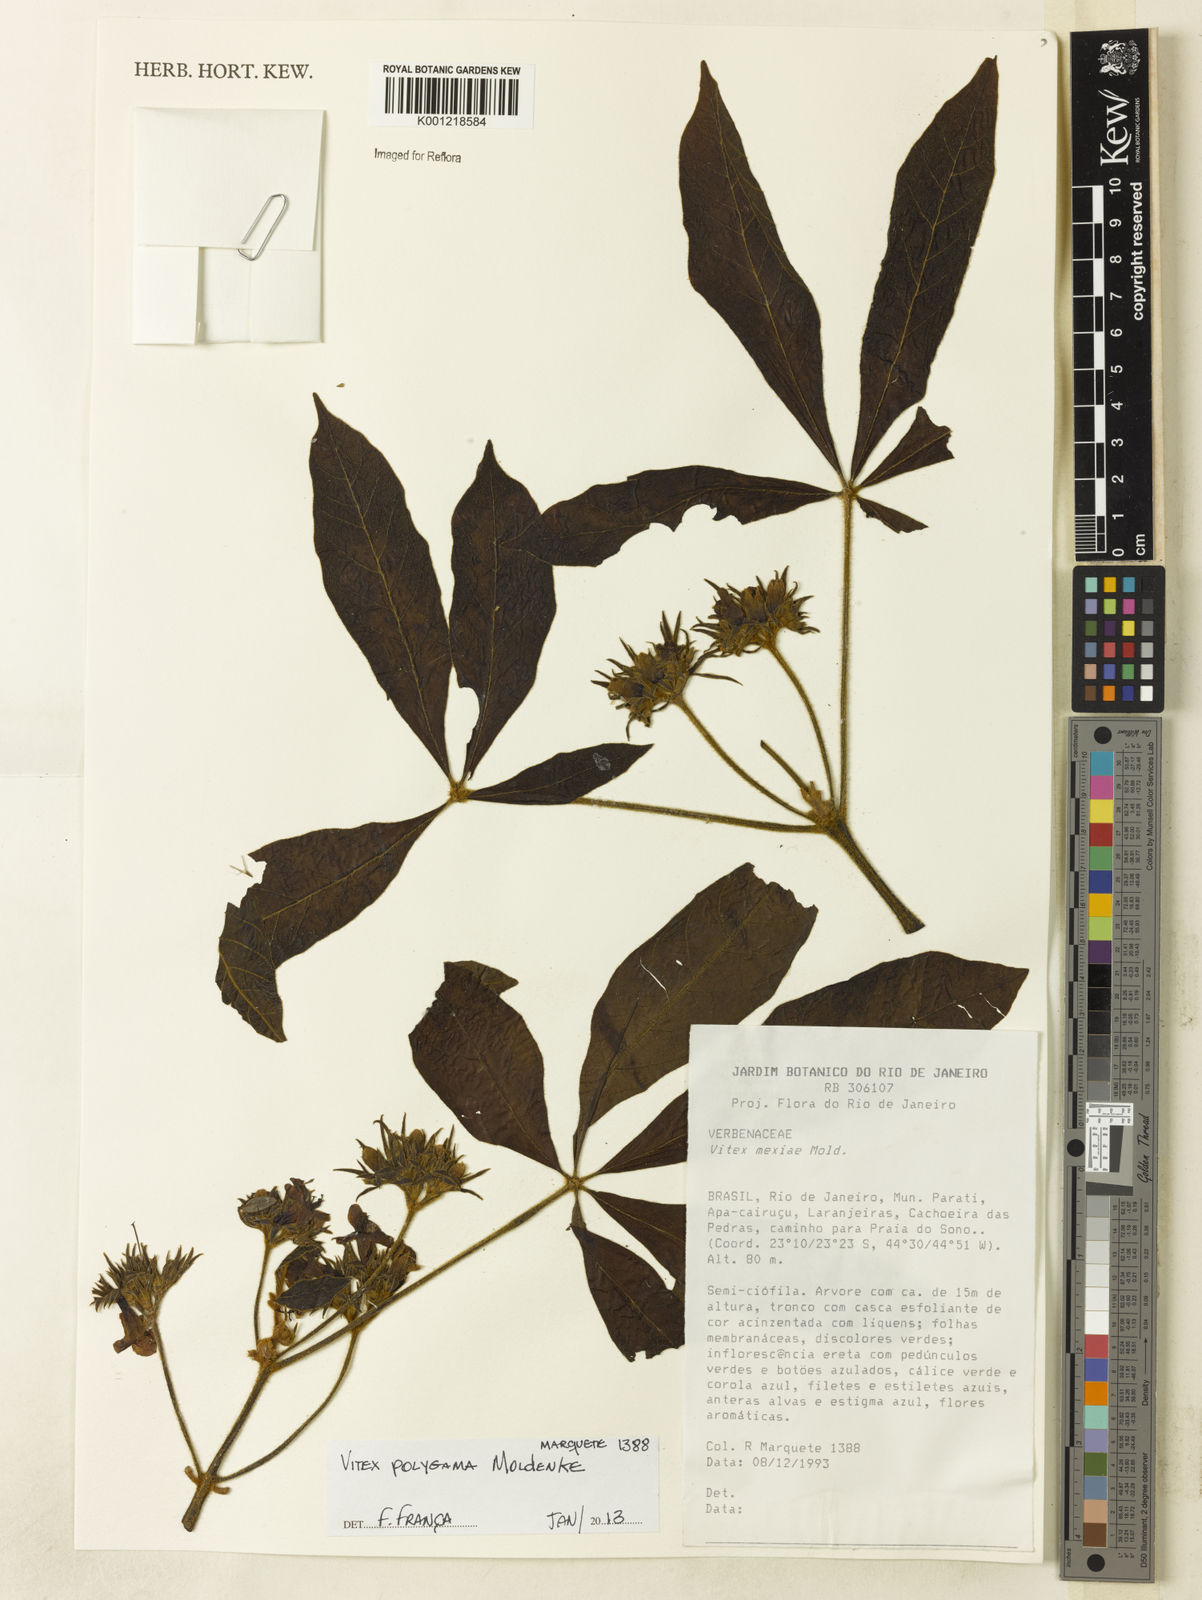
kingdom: Plantae
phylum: Tracheophyta
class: Magnoliopsida
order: Lamiales
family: Lamiaceae
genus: Vitex
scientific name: Vitex polygama
